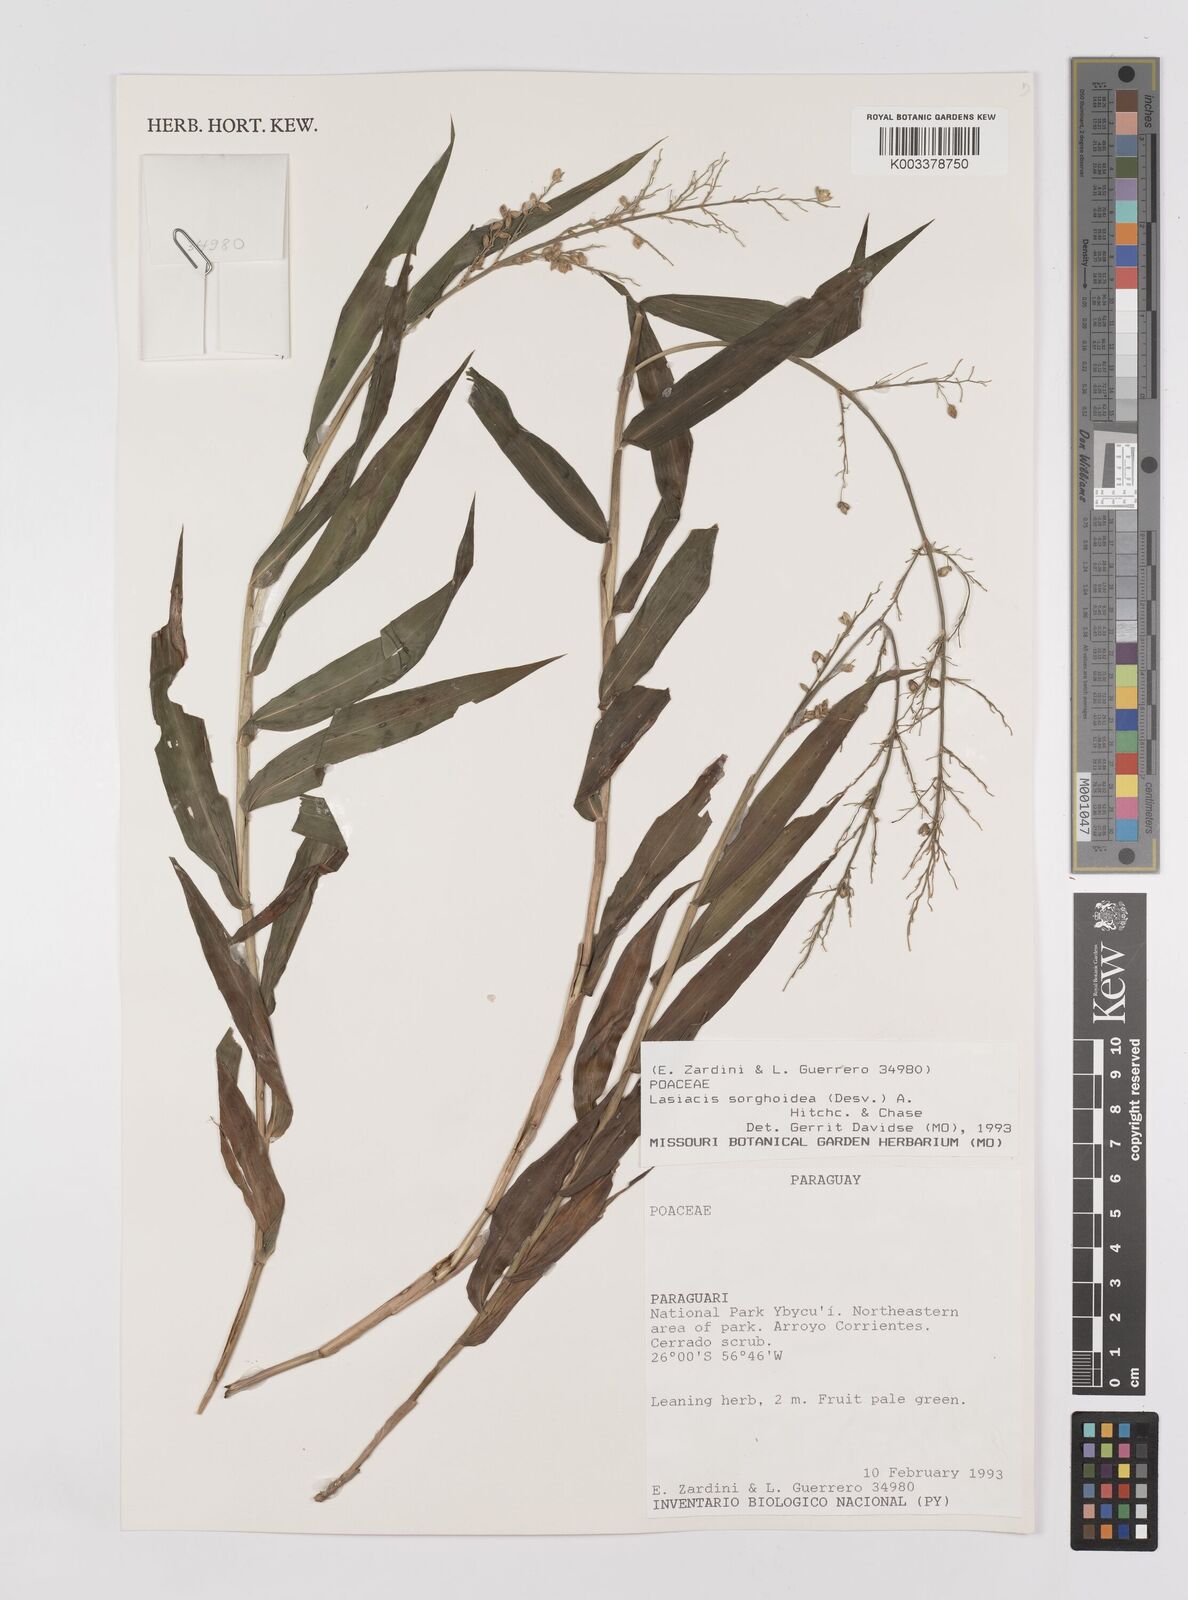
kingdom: Plantae
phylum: Tracheophyta
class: Liliopsida
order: Poales
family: Poaceae
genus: Lasiacis
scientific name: Lasiacis maculata
